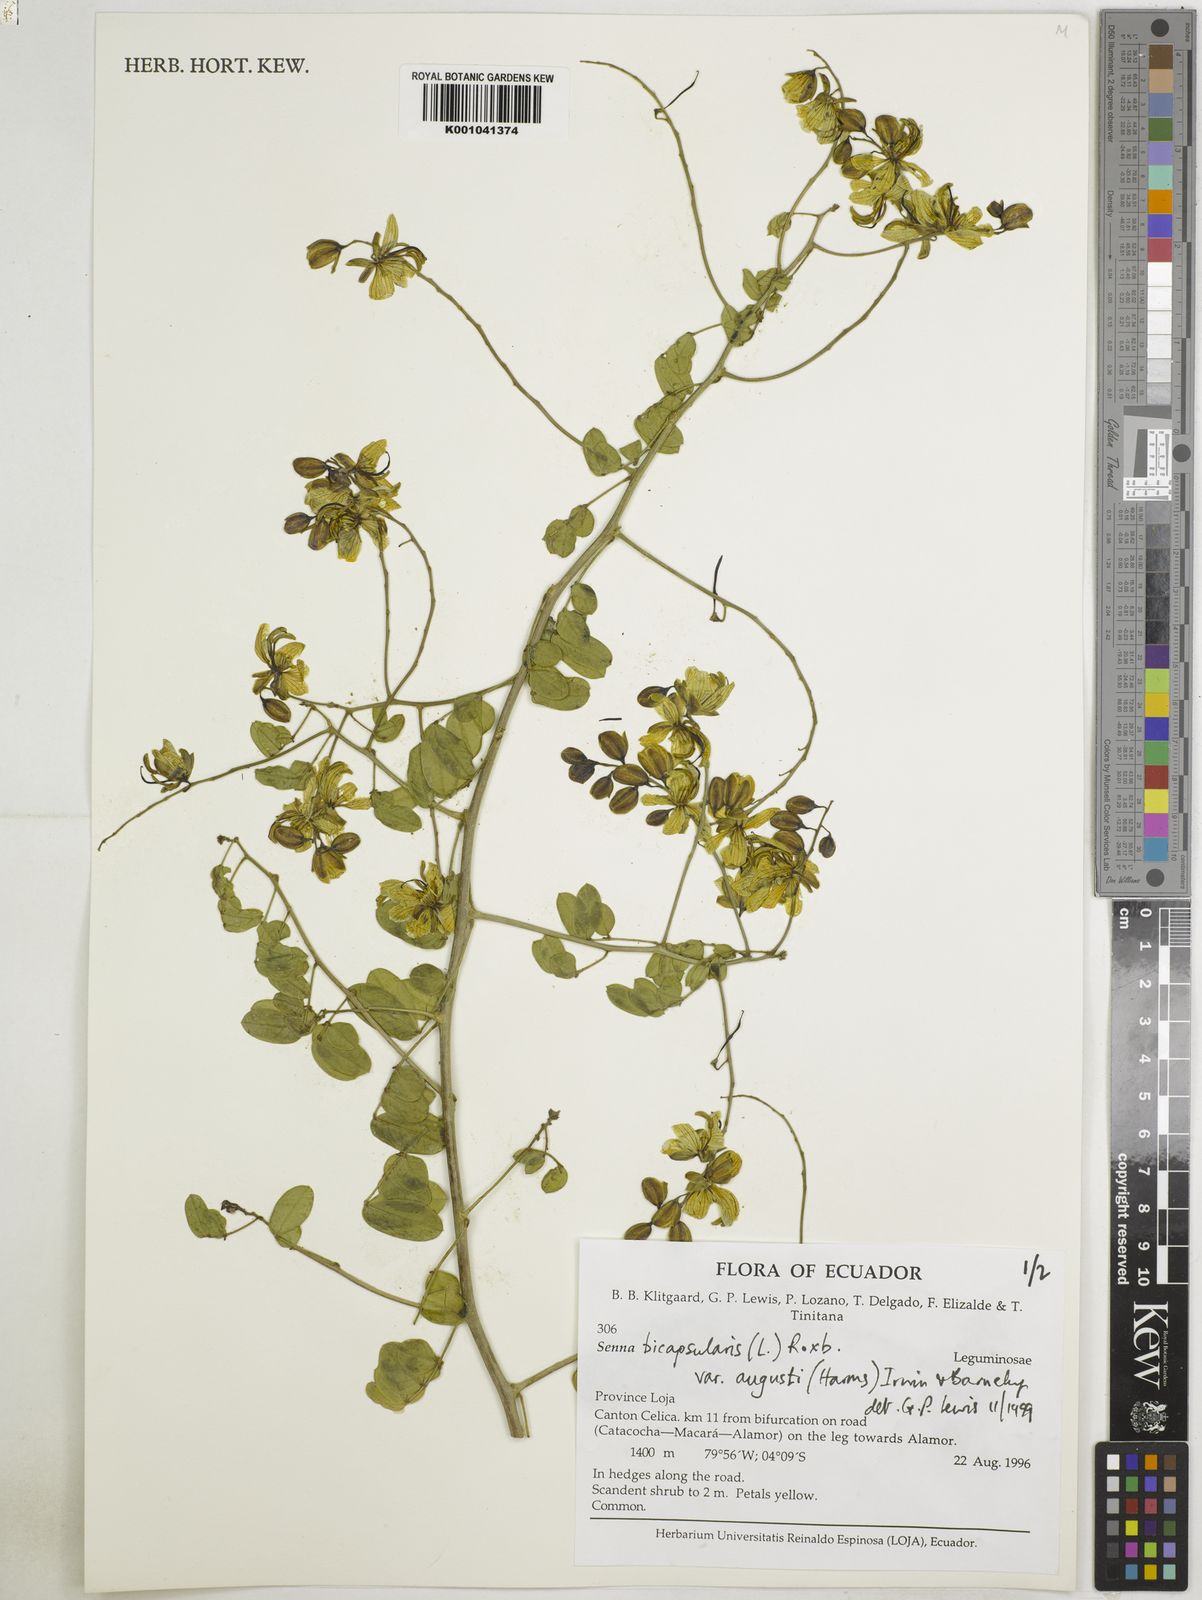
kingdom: Plantae
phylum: Tracheophyta
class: Magnoliopsida
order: Fabales
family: Fabaceae
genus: Senna
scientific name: Senna bicapsularis
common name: Christmasbush
